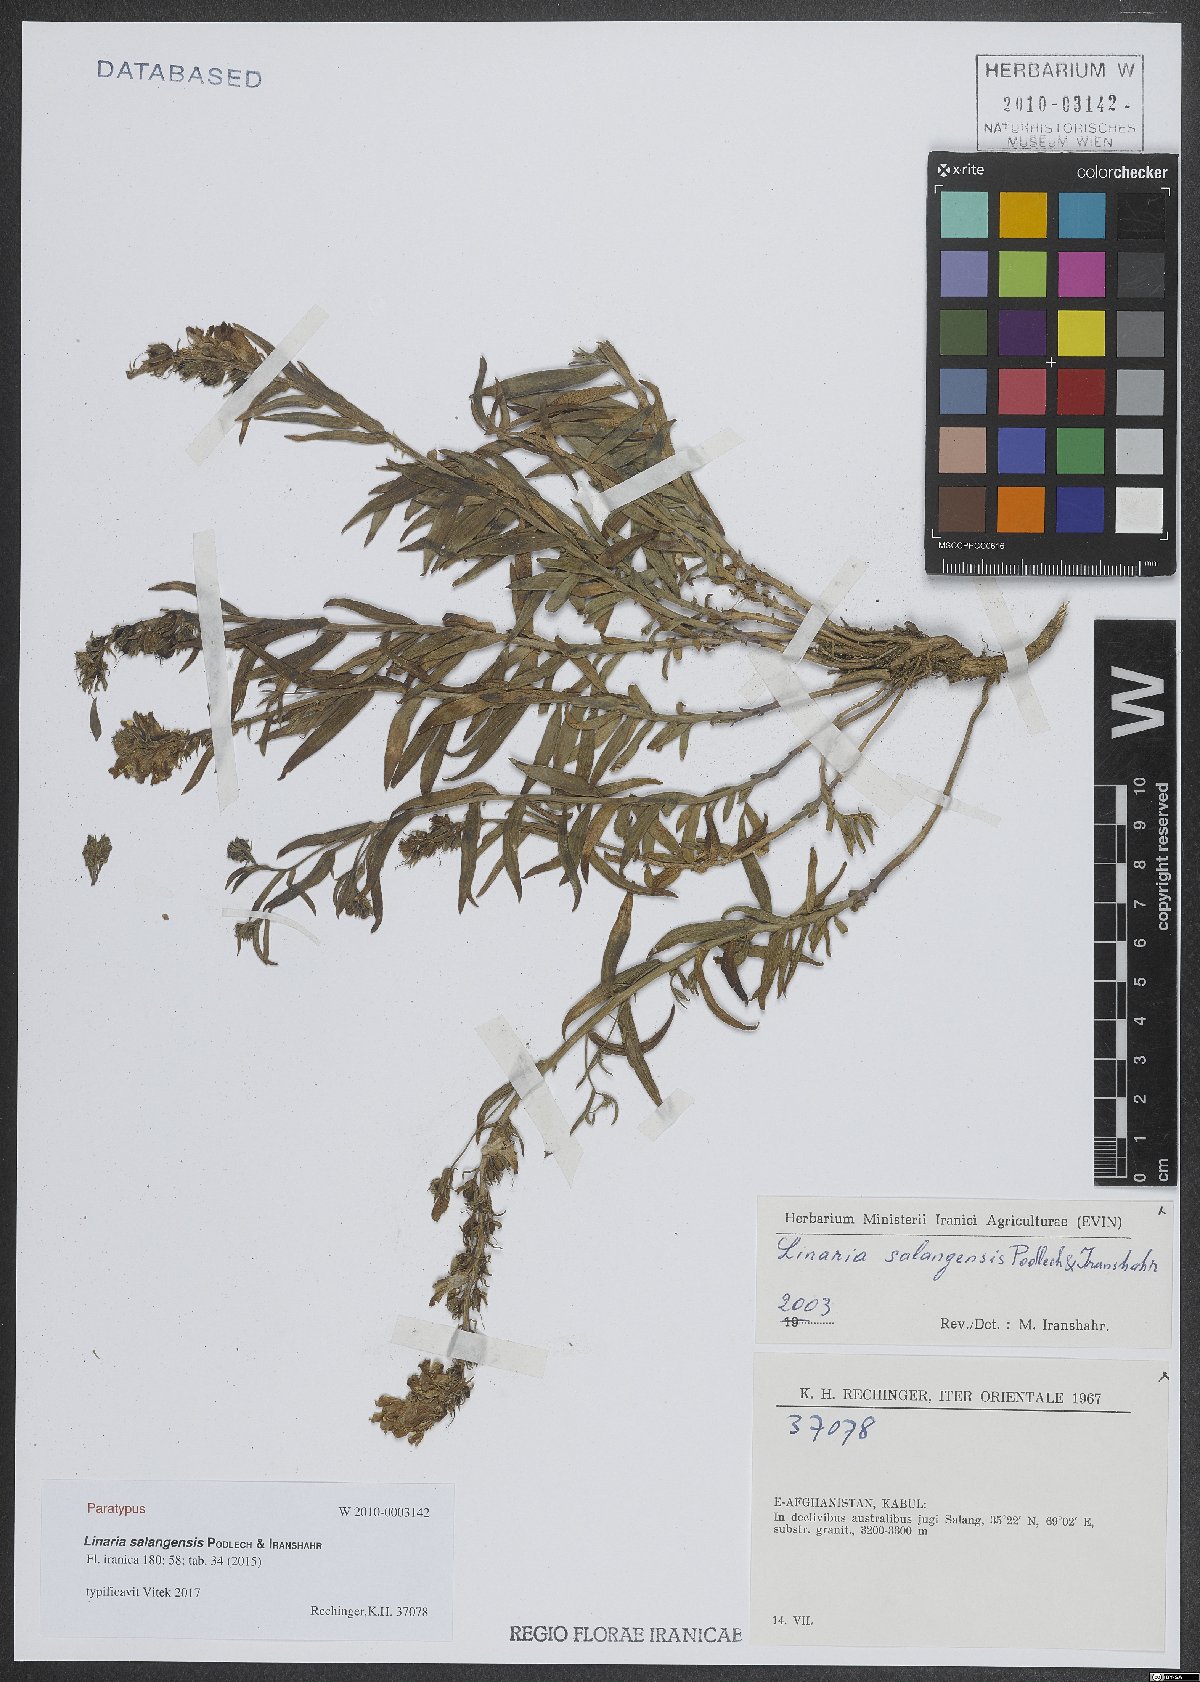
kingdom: Plantae
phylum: Tracheophyta
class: Magnoliopsida
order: Lamiales
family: Plantaginaceae
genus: Linaria
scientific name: Linaria salangensis
